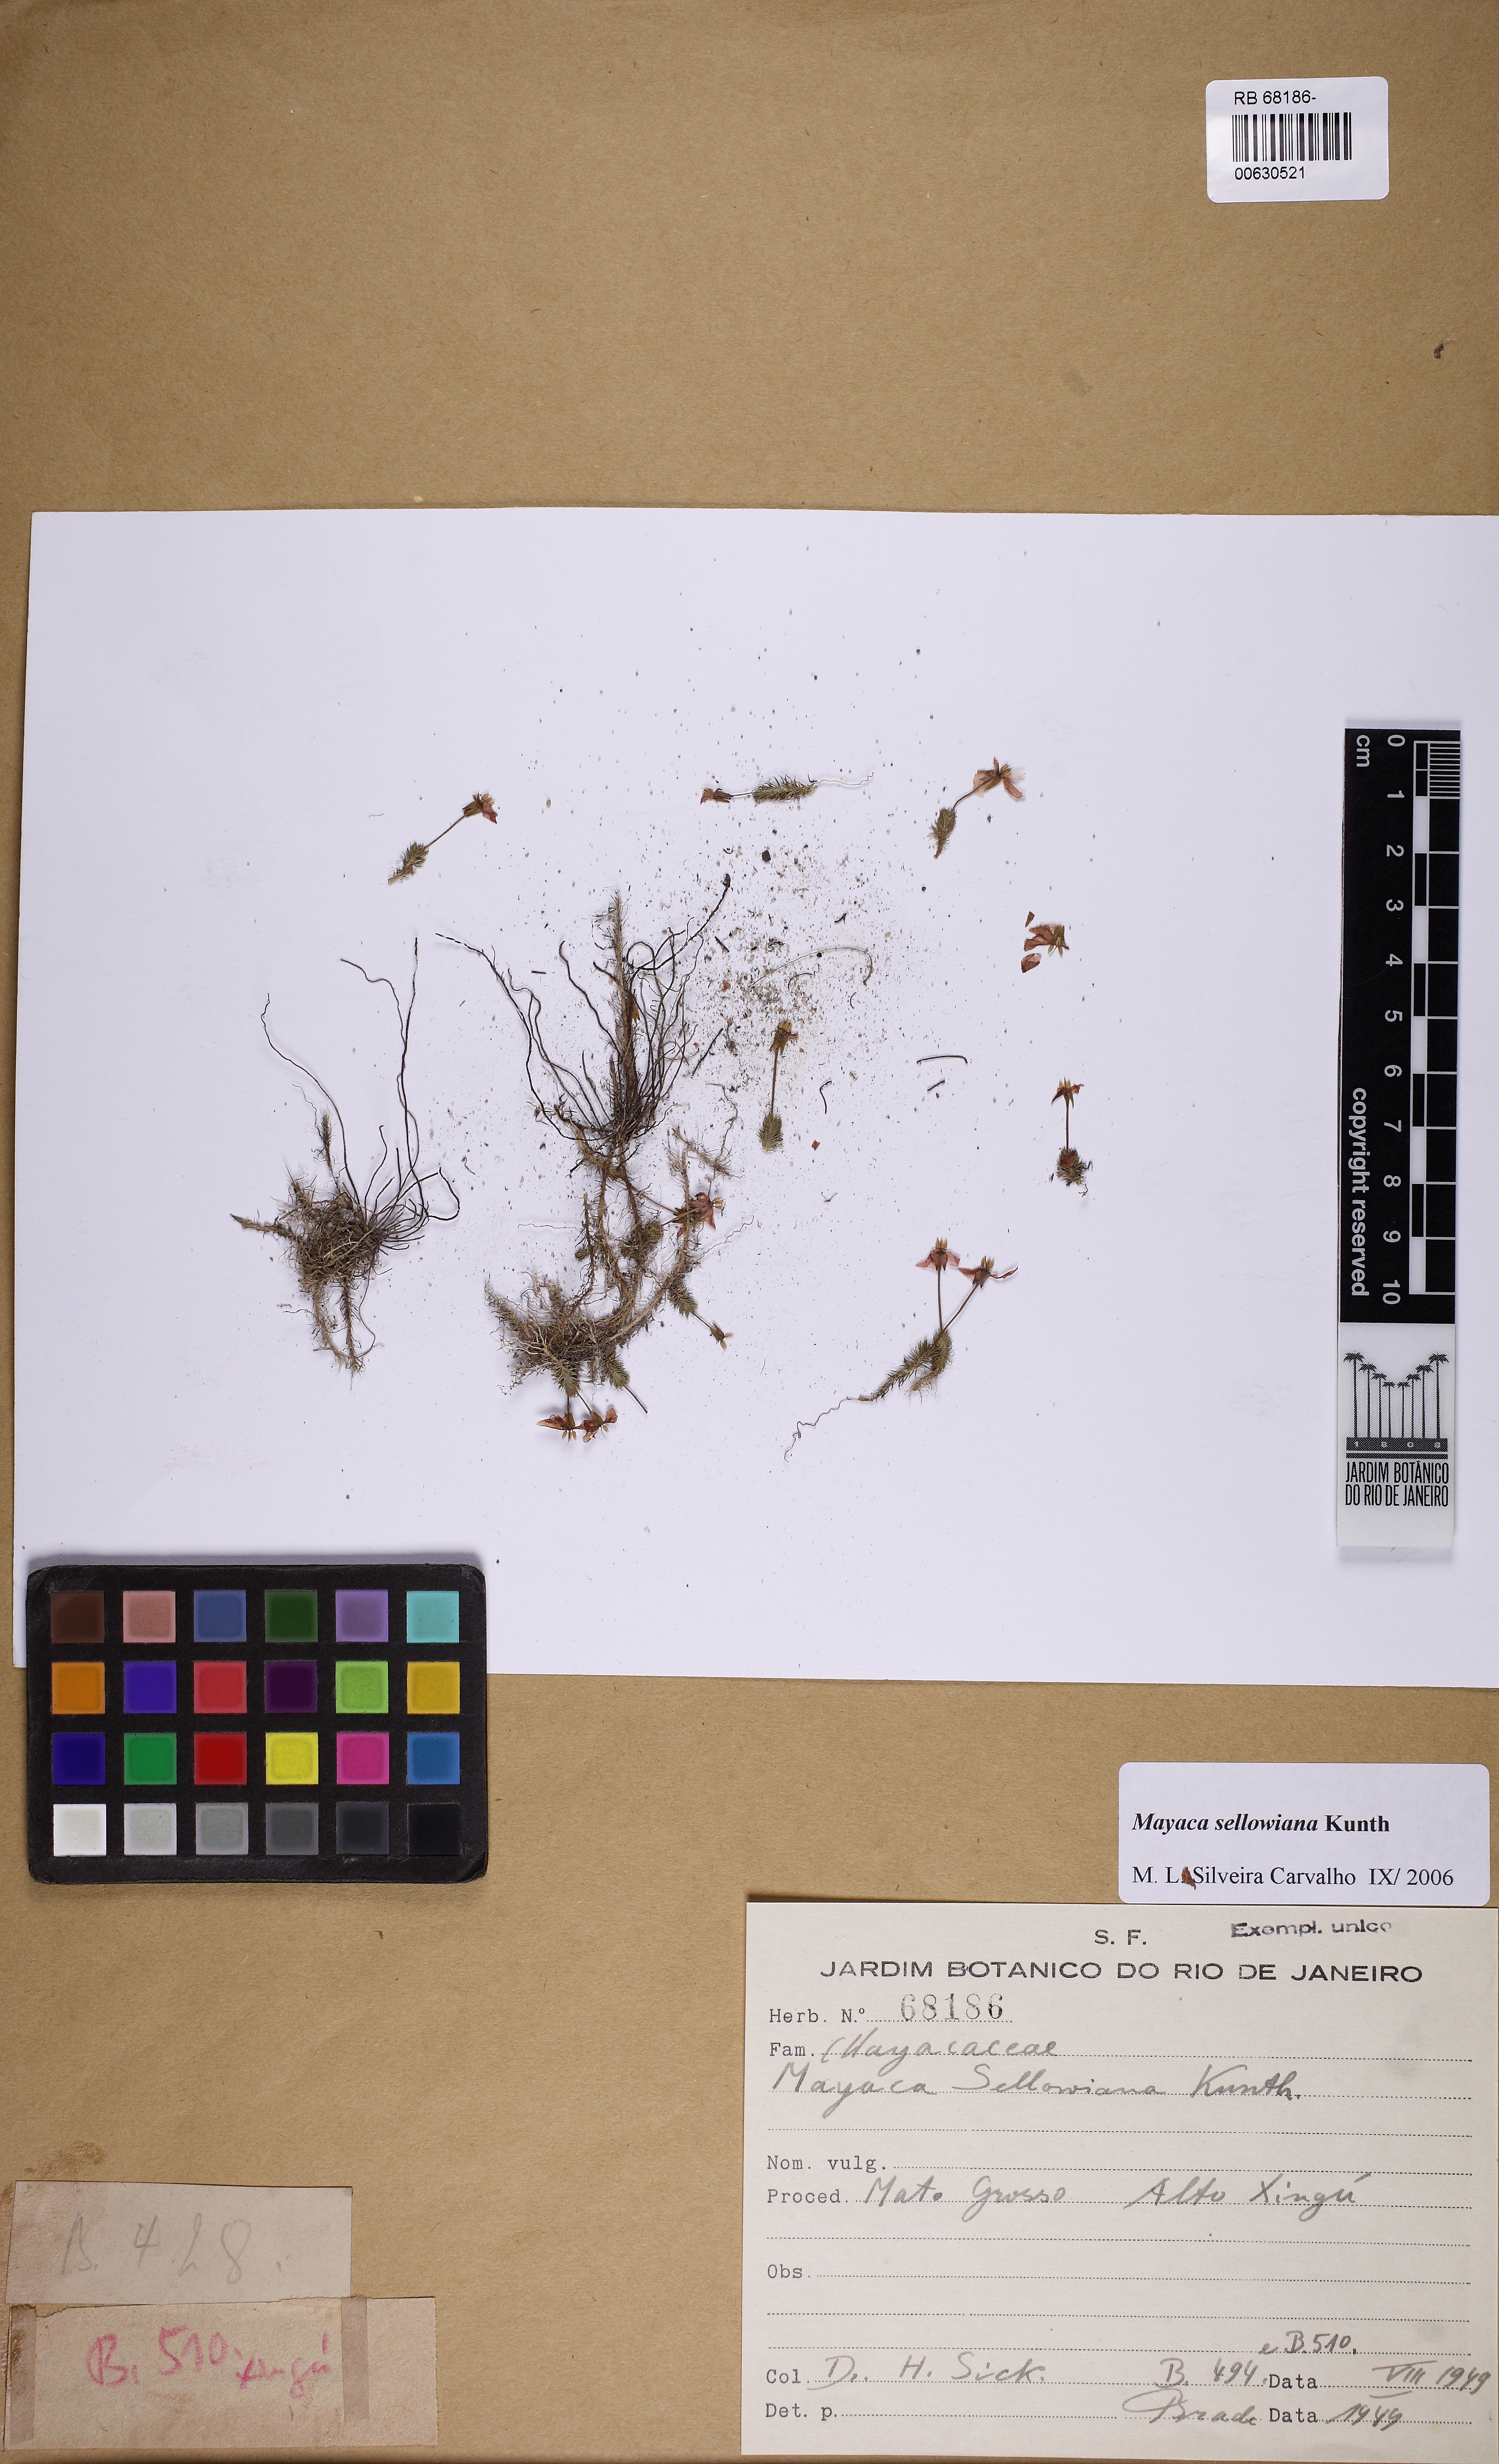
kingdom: Plantae
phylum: Tracheophyta
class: Liliopsida
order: Poales
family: Mayacaceae
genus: Mayaca
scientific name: Mayaca sellowiana
